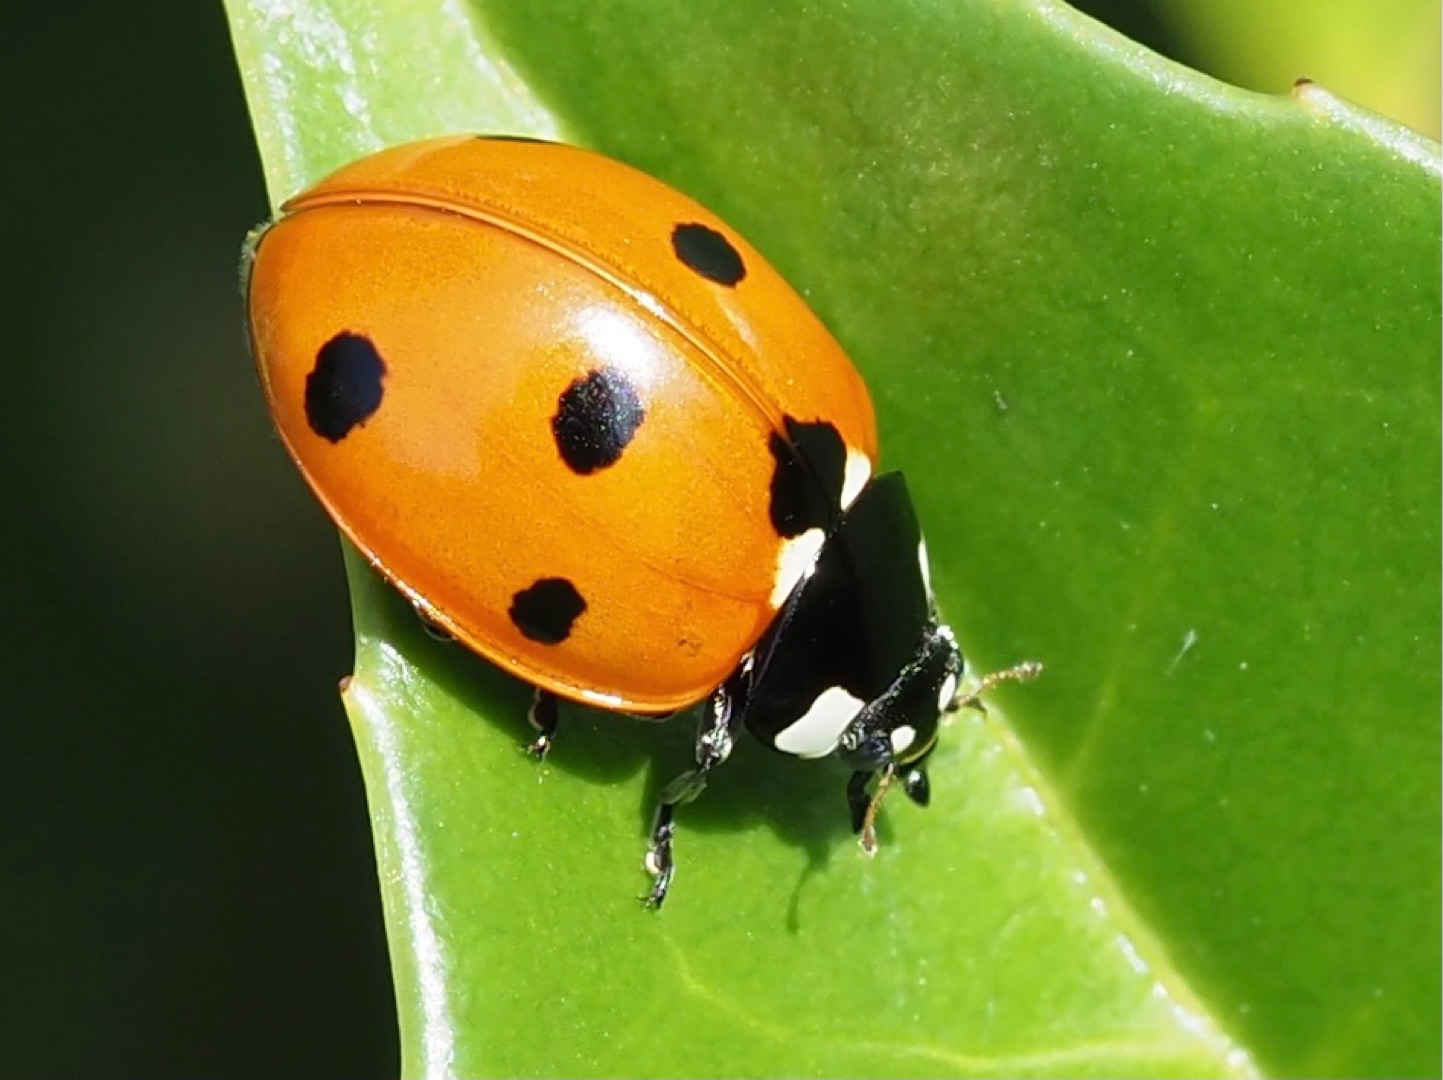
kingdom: Animalia
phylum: Arthropoda
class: Insecta
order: Coleoptera
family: Coccinellidae
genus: Coccinella
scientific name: Coccinella septempunctata
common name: Syvplettet mariehøne
